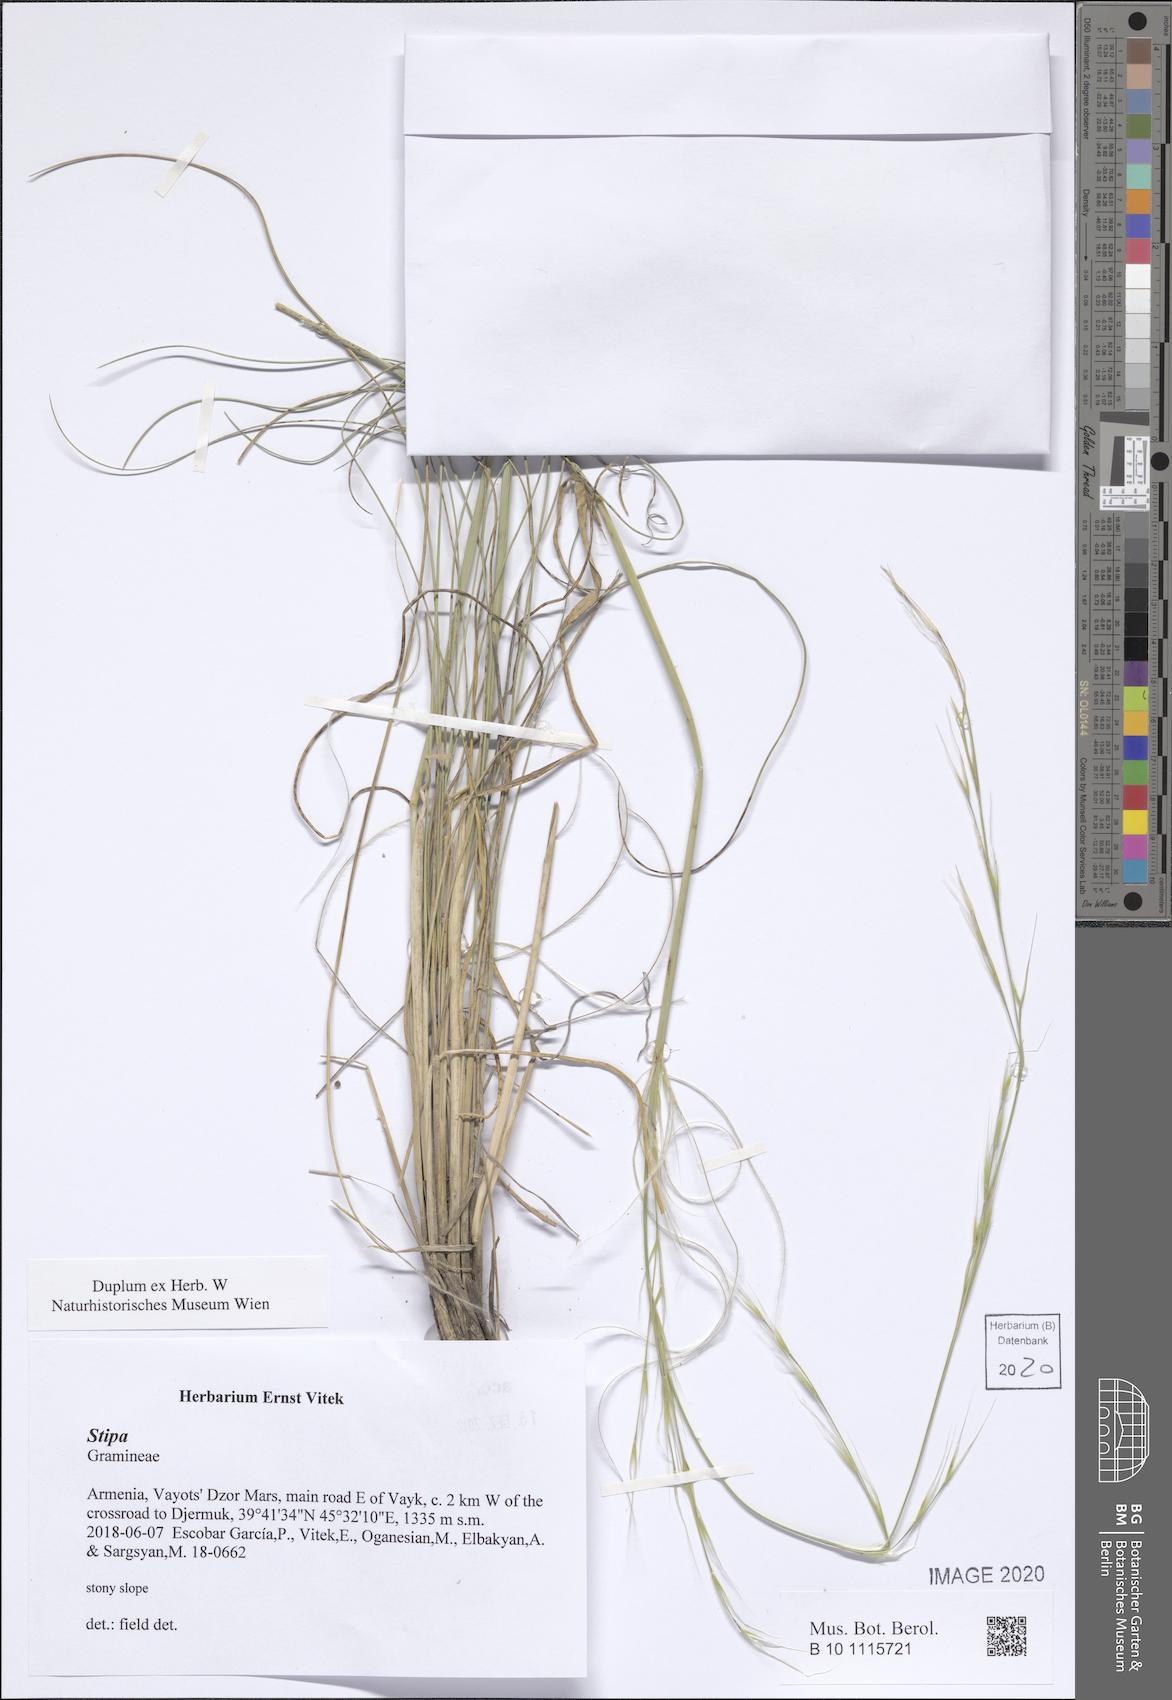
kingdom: Plantae
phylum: Tracheophyta
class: Liliopsida
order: Poales
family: Poaceae
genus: Stipa
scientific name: Stipa
